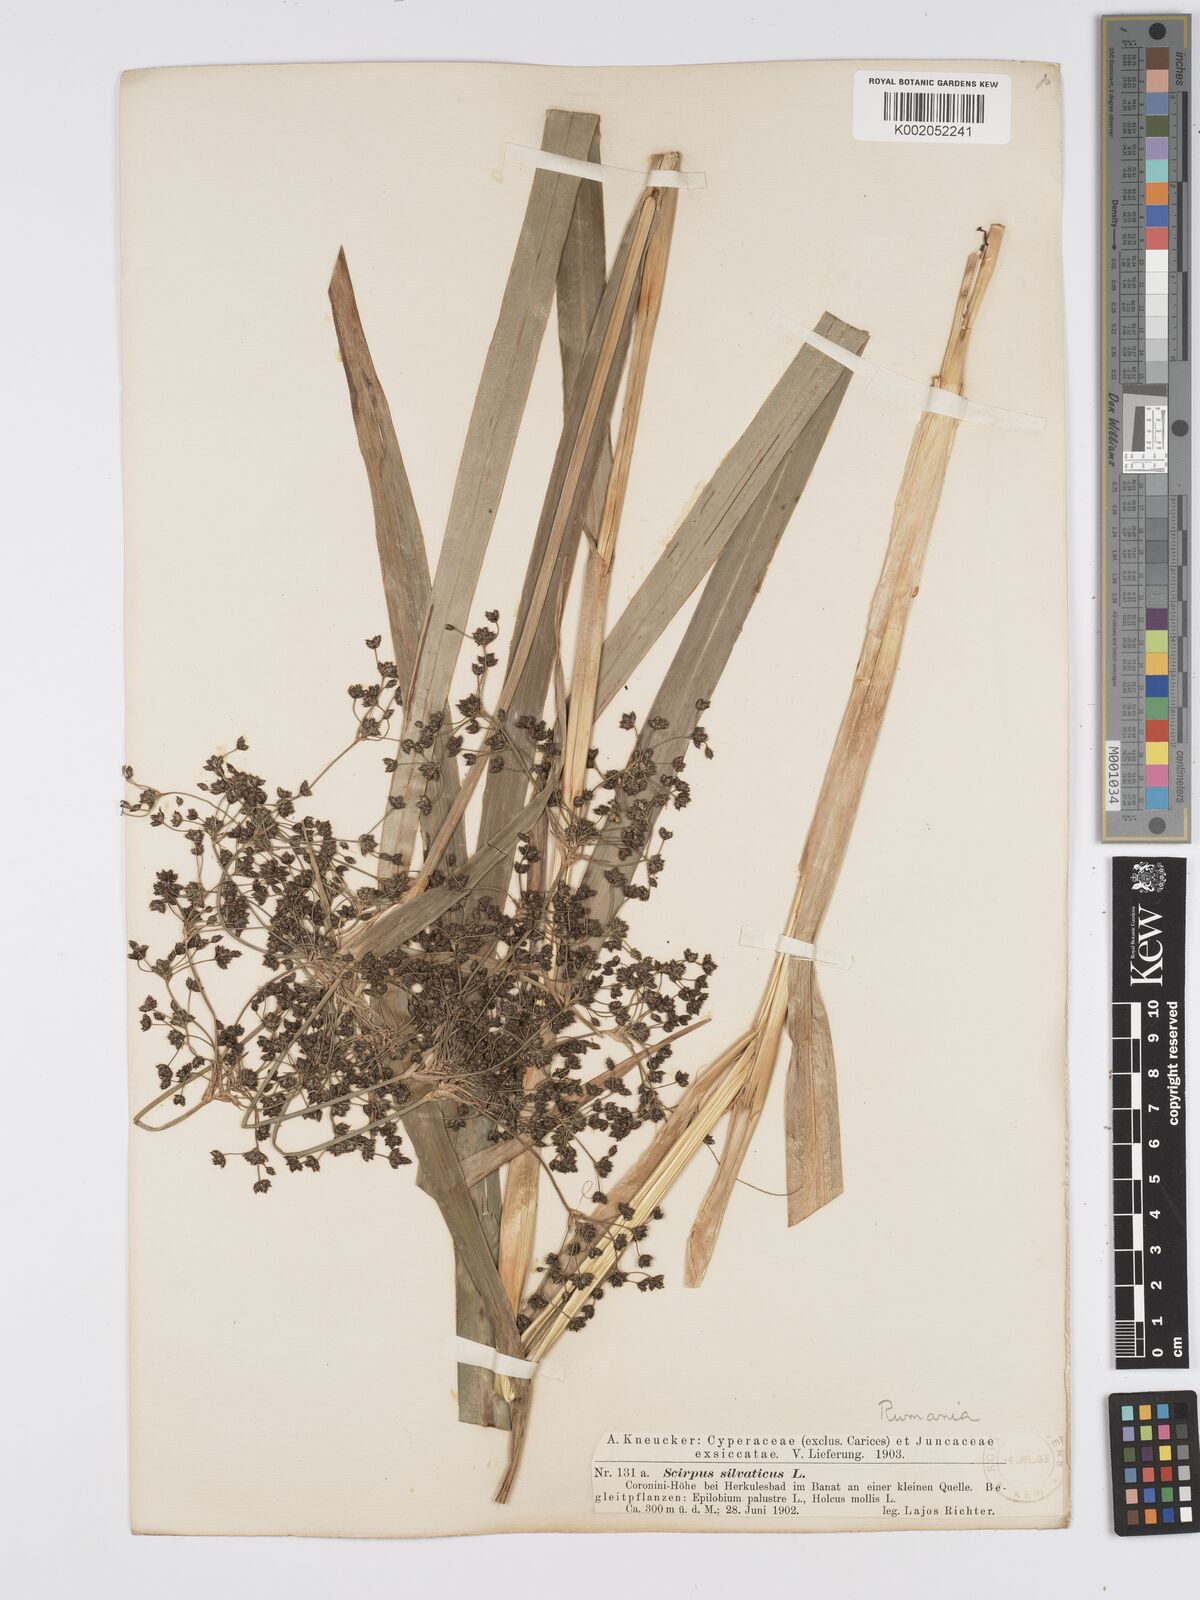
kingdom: Plantae
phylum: Tracheophyta
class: Liliopsida
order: Poales
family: Cyperaceae
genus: Scirpus
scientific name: Scirpus sylvaticus
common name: Wood club-rush
